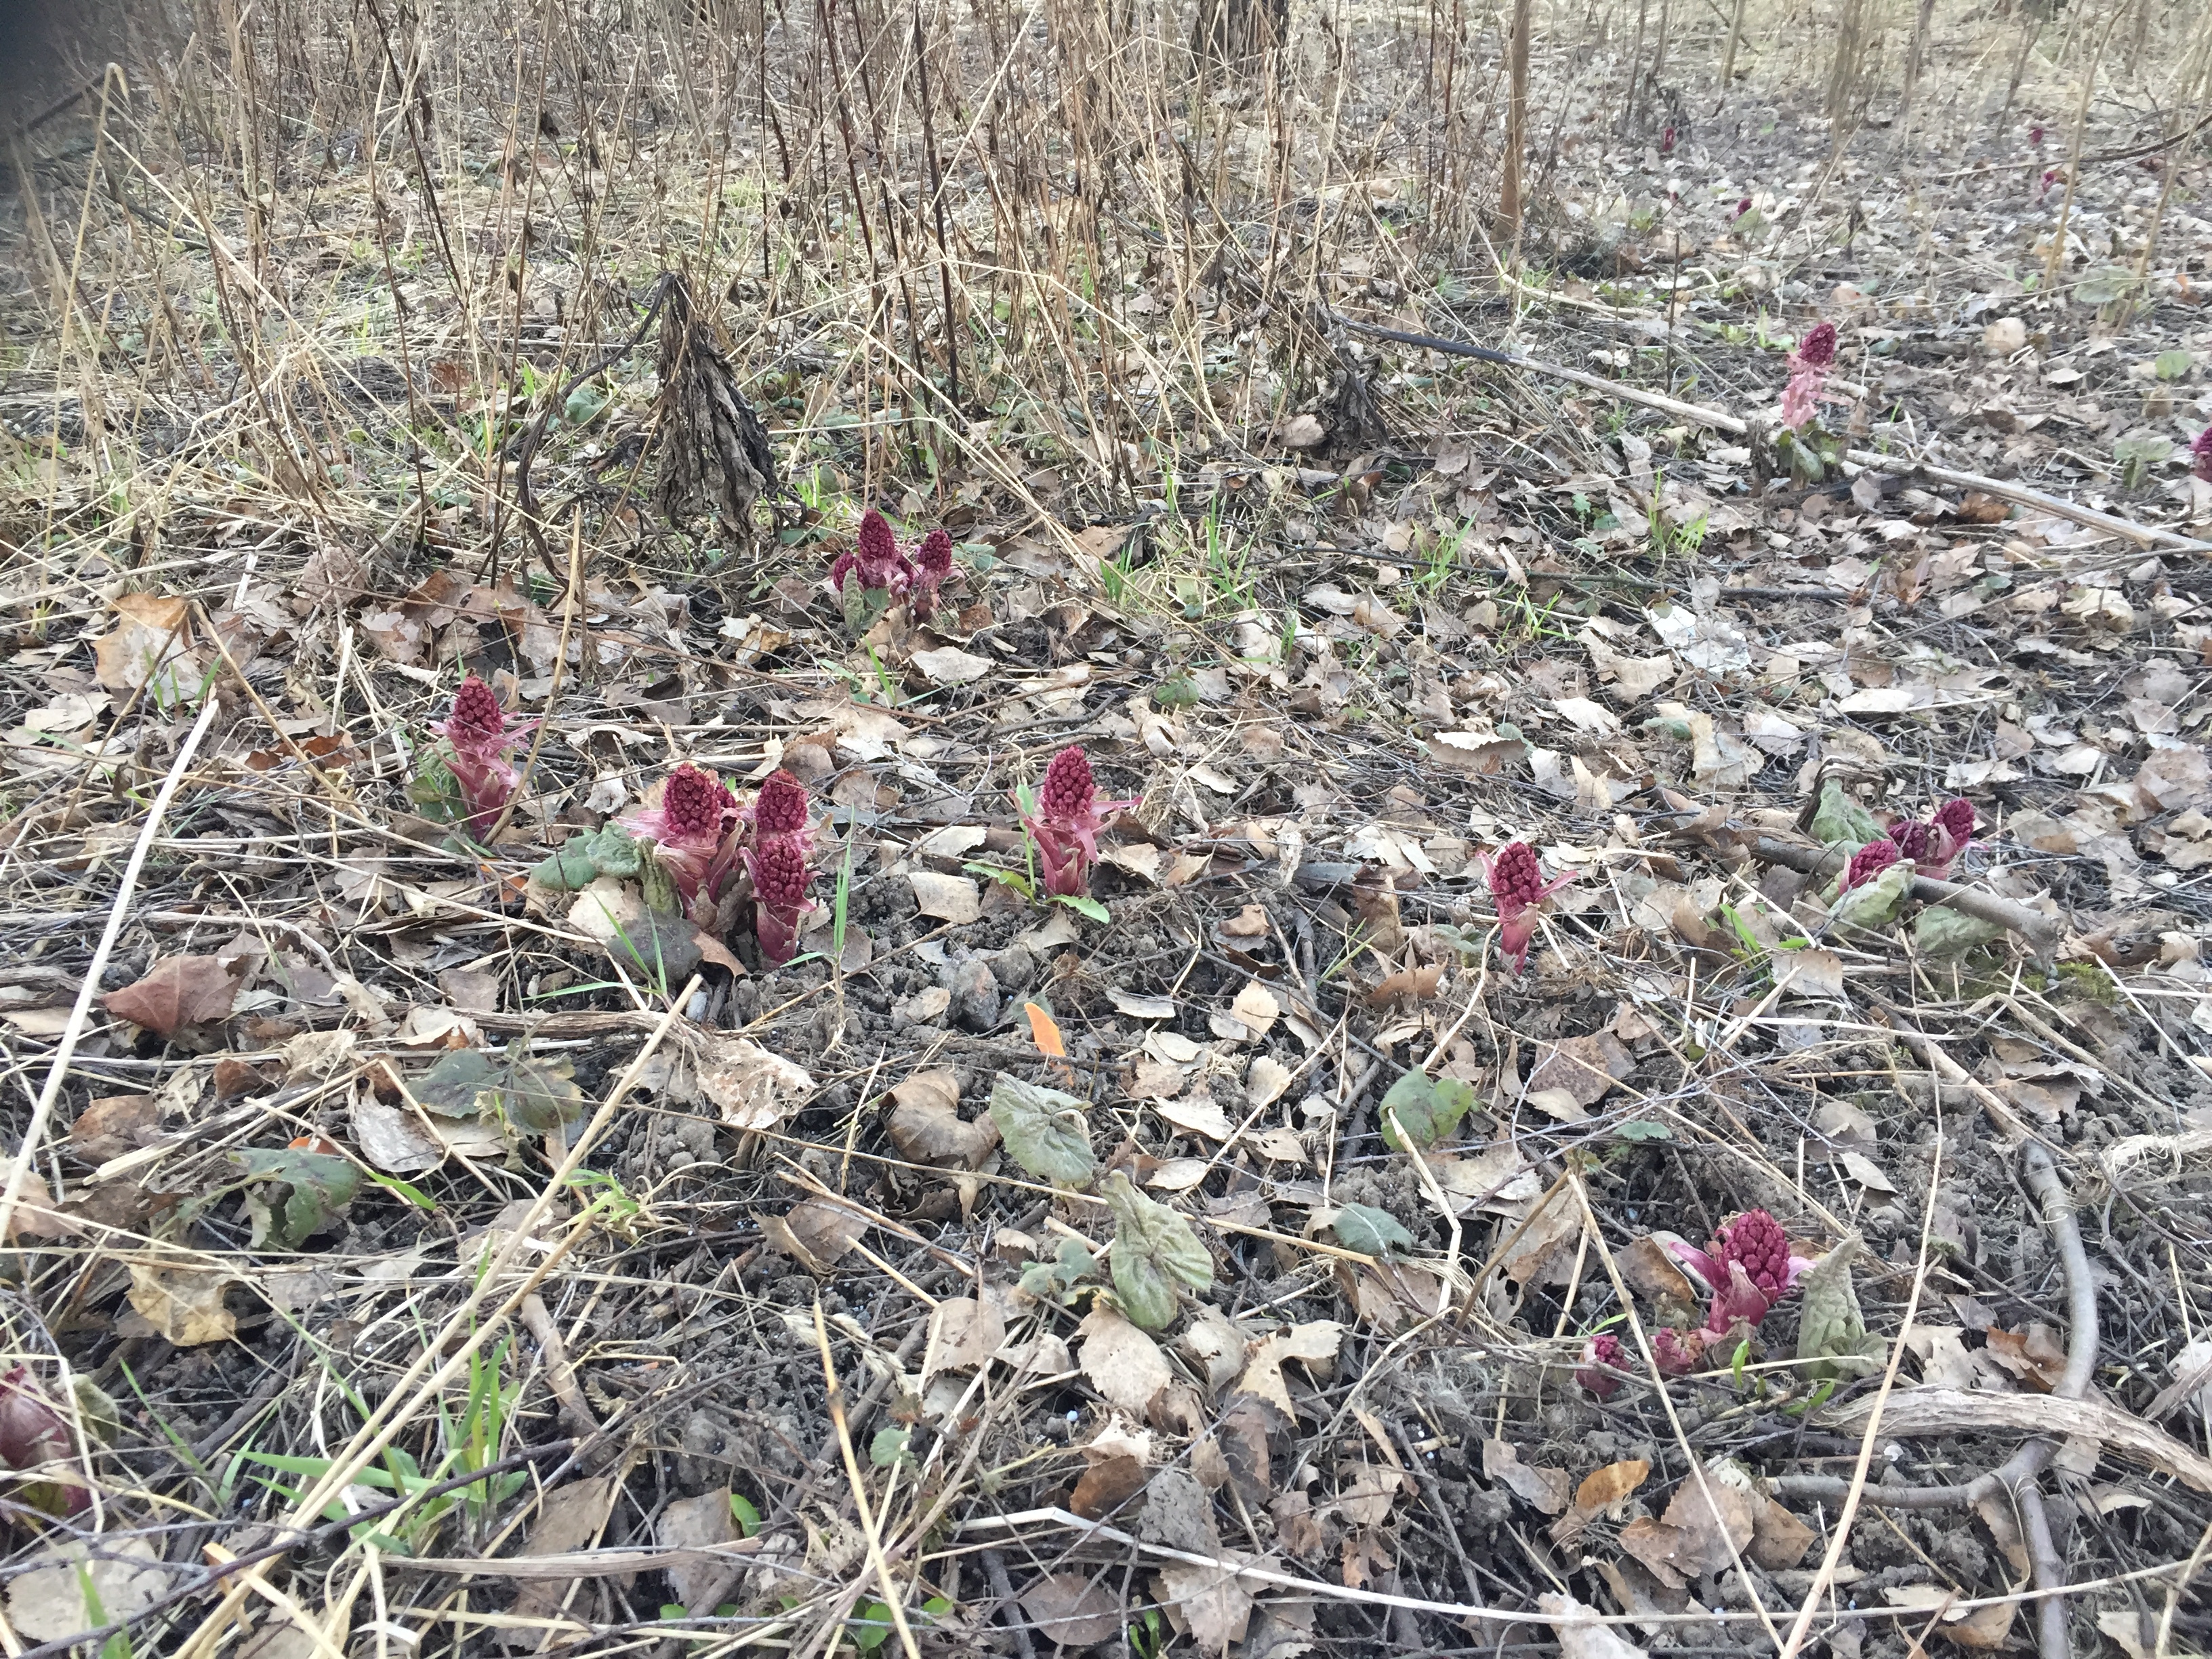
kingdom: Plantae
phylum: Tracheophyta
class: Magnoliopsida
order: Asterales
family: Asteraceae
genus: Petasites
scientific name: Petasites hybridus
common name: Butterbur
